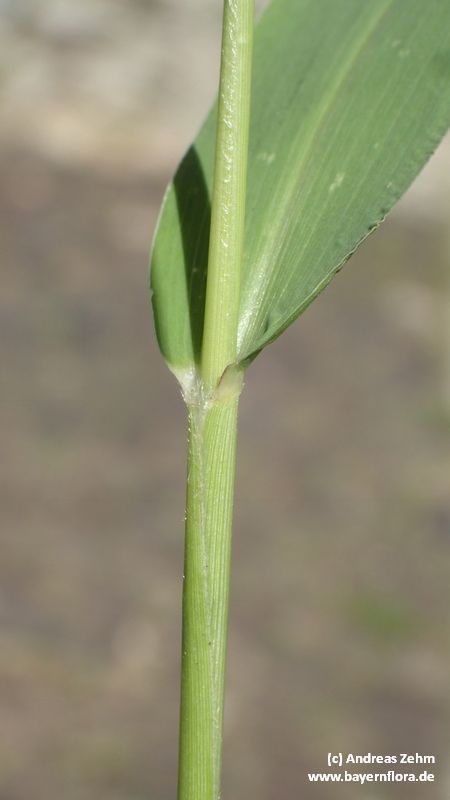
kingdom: Plantae
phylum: Tracheophyta
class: Liliopsida
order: Poales
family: Poaceae
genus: Setaria
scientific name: Setaria italica
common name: Foxtail bristle-grass
